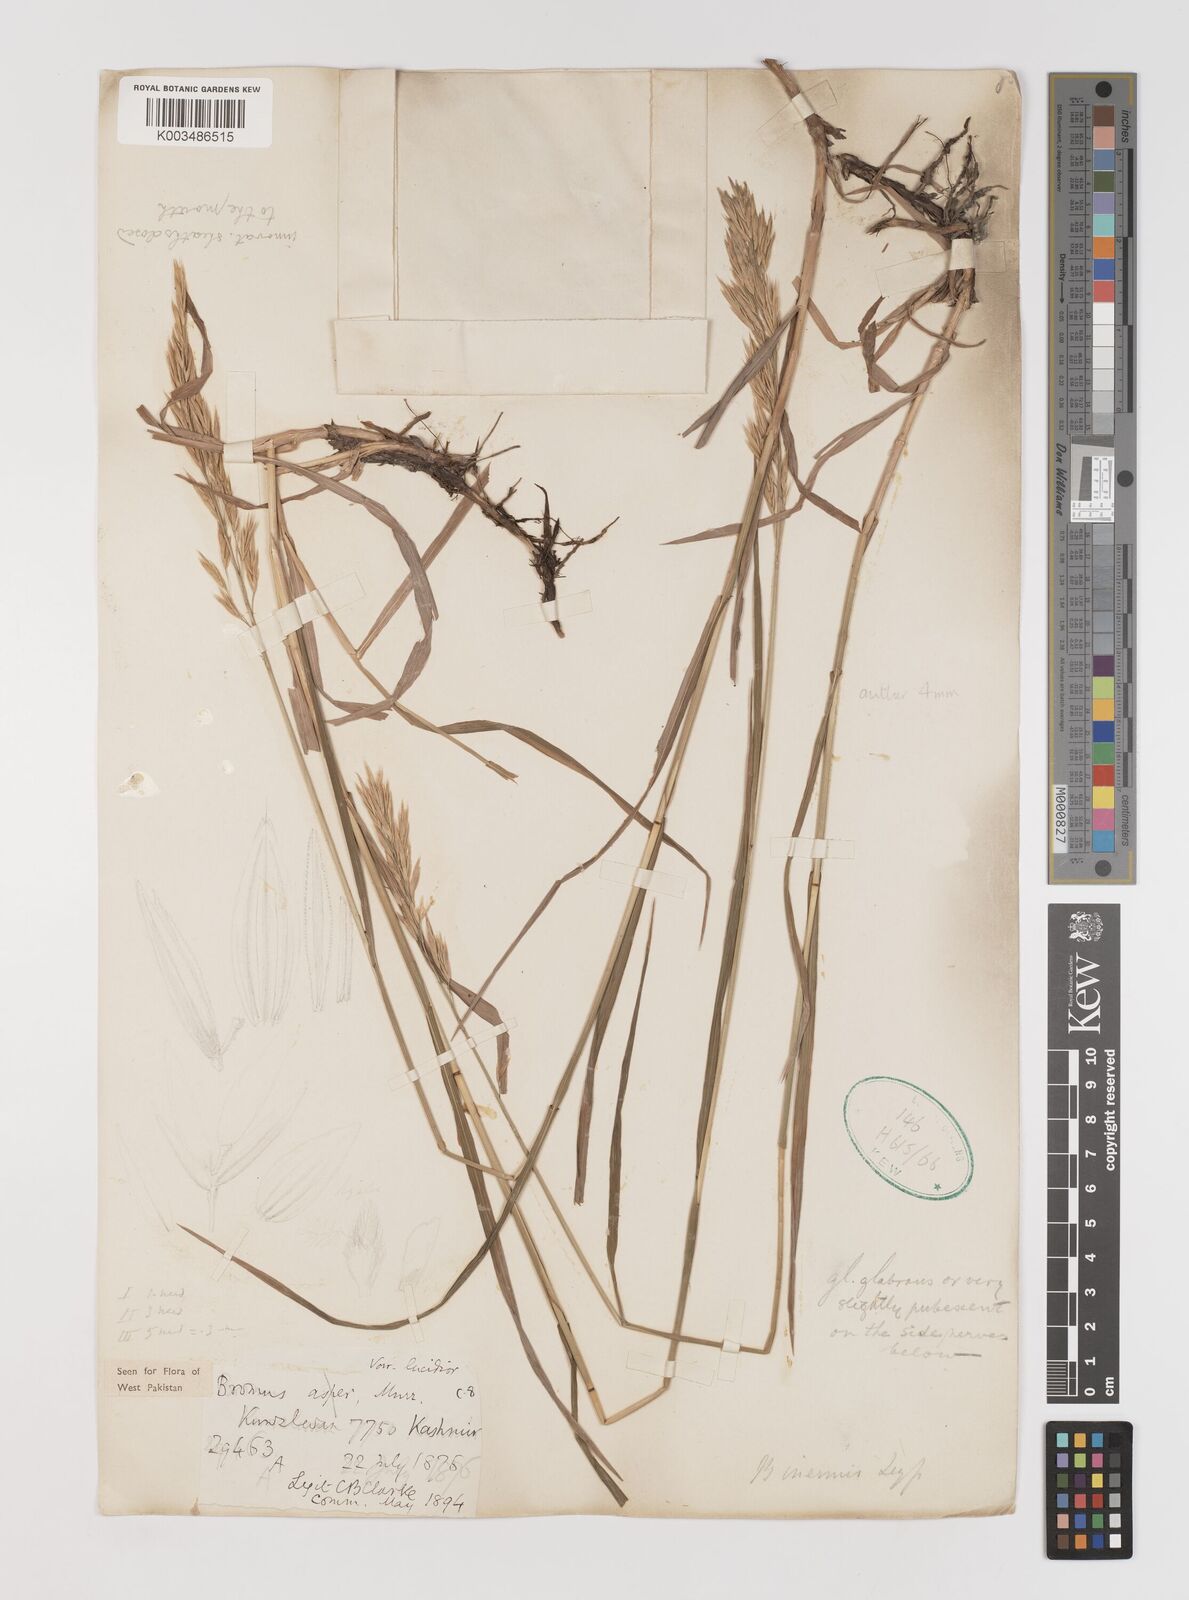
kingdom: Plantae
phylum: Tracheophyta
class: Liliopsida
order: Poales
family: Poaceae
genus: Bromus
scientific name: Bromus inermis
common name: Smooth brome
